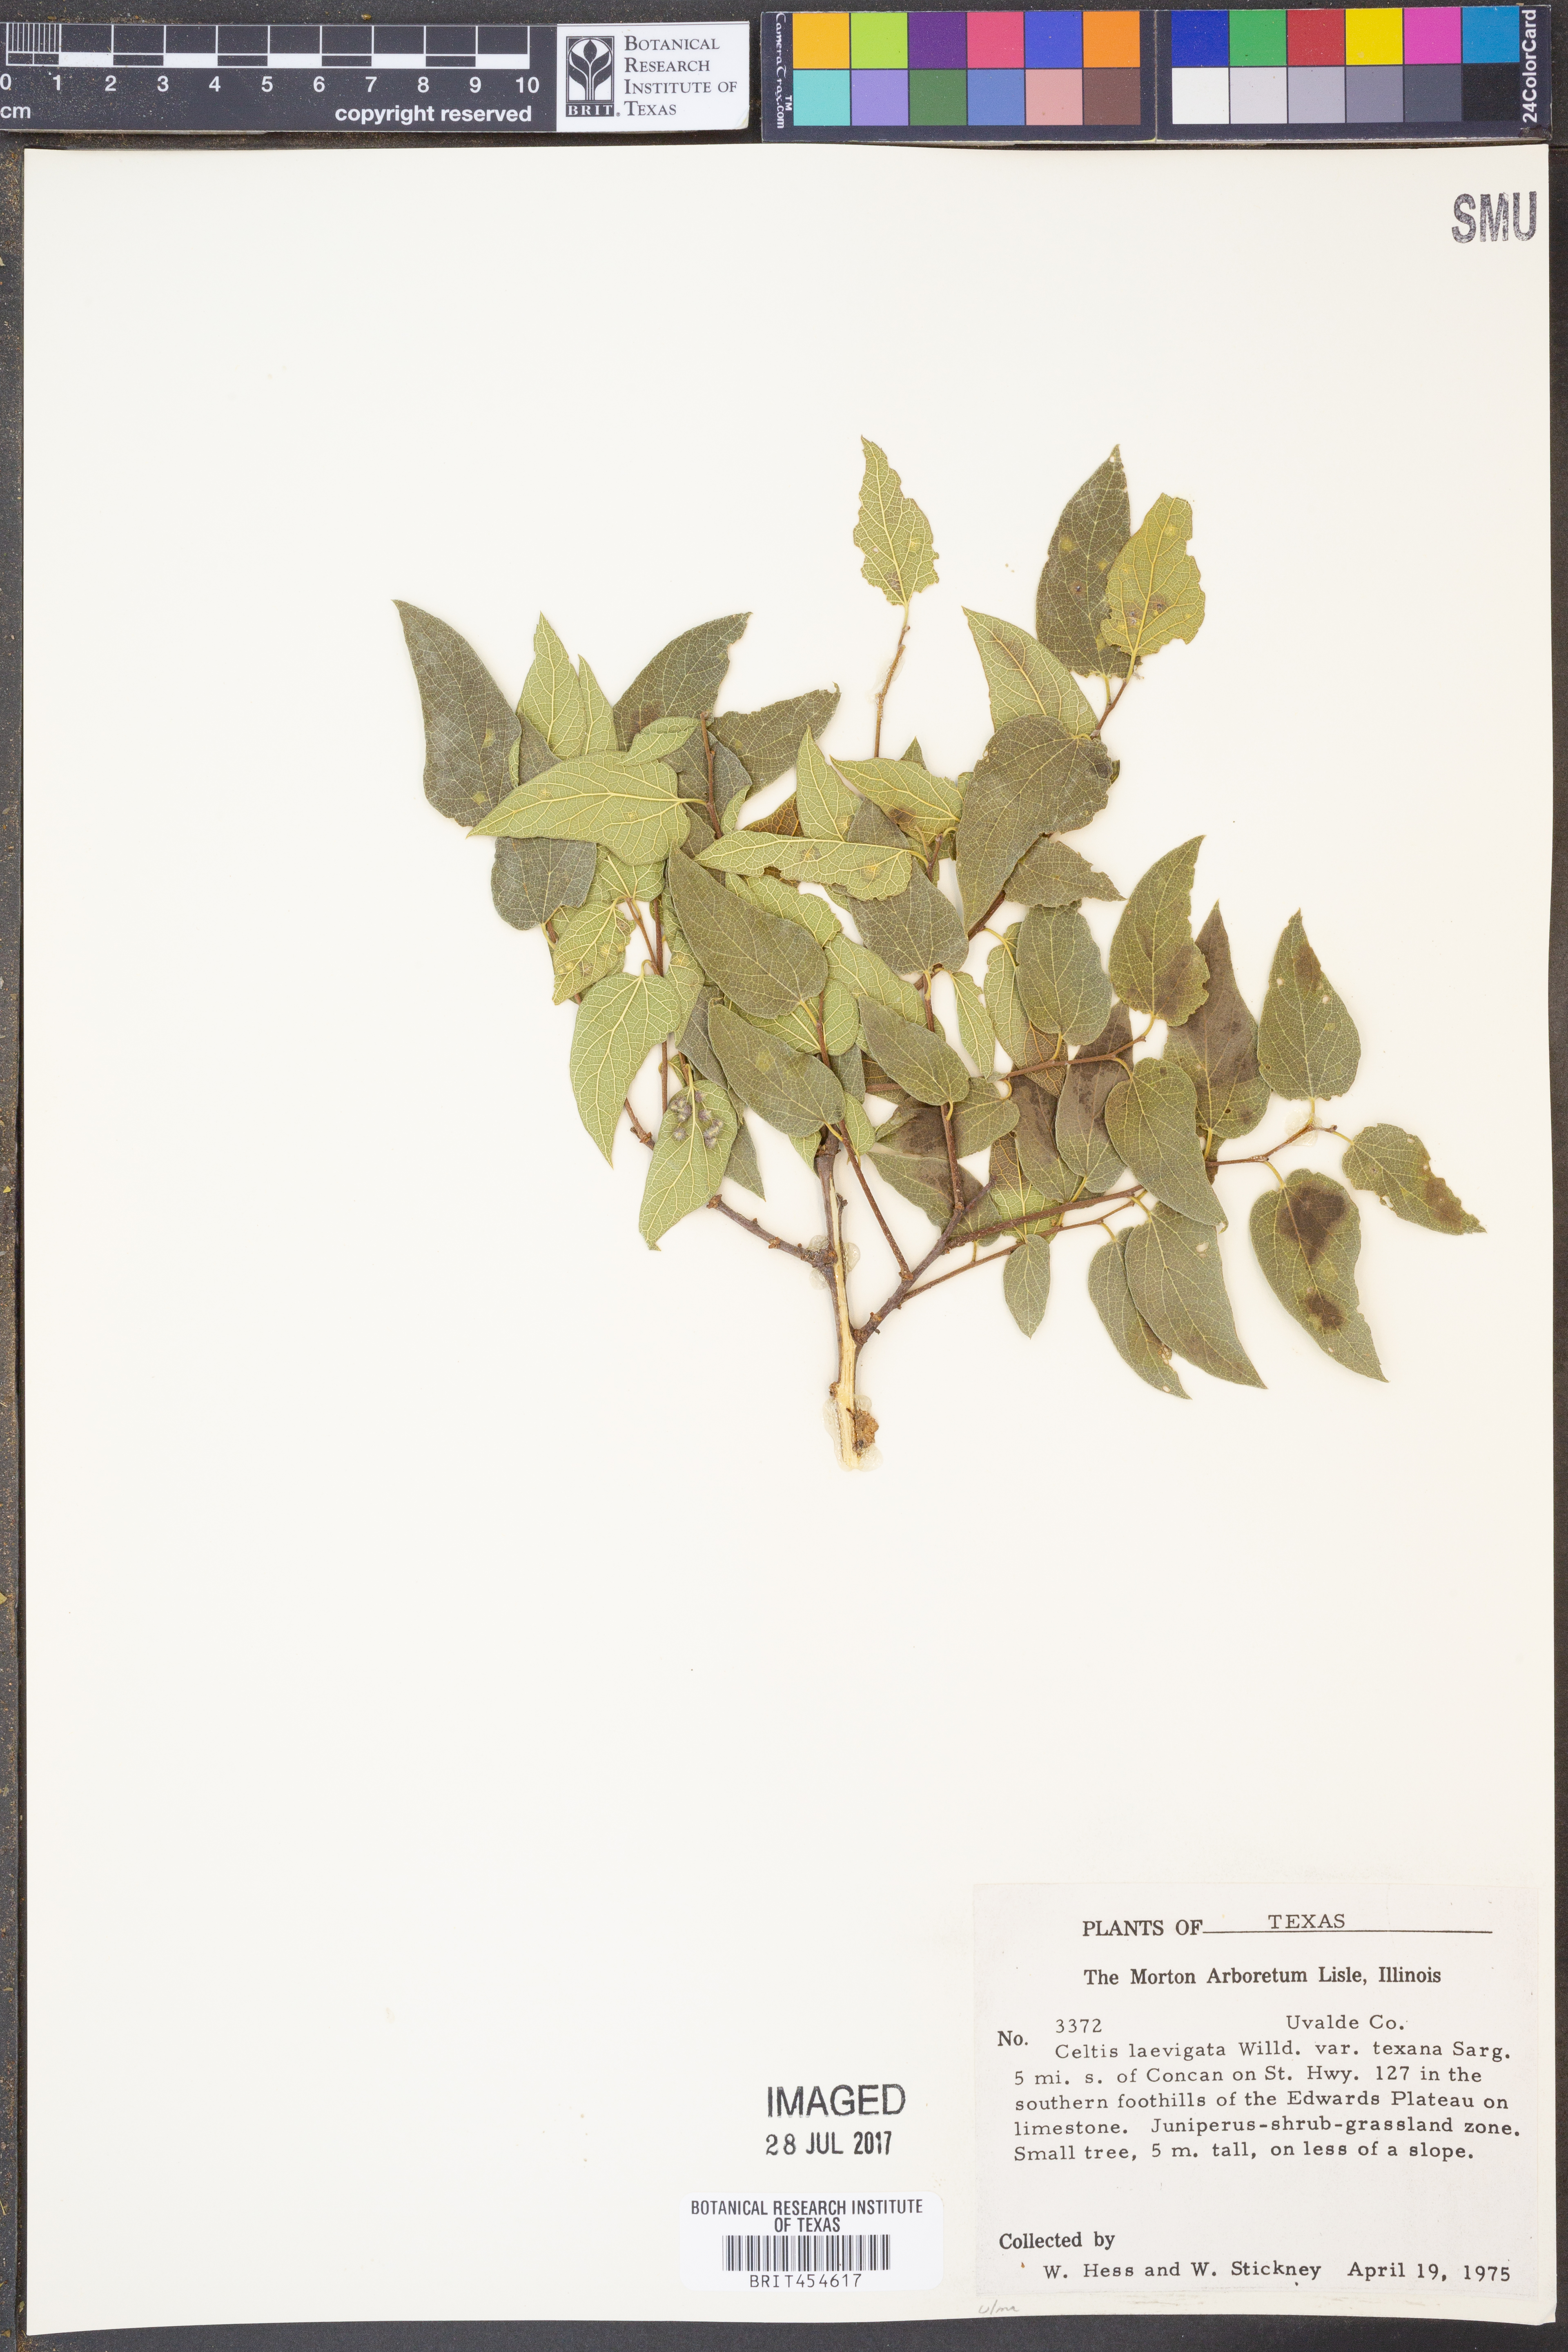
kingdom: Plantae
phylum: Tracheophyta
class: Magnoliopsida
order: Rosales
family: Cannabaceae
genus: Celtis
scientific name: Celtis laevigata
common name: Sugarberry
